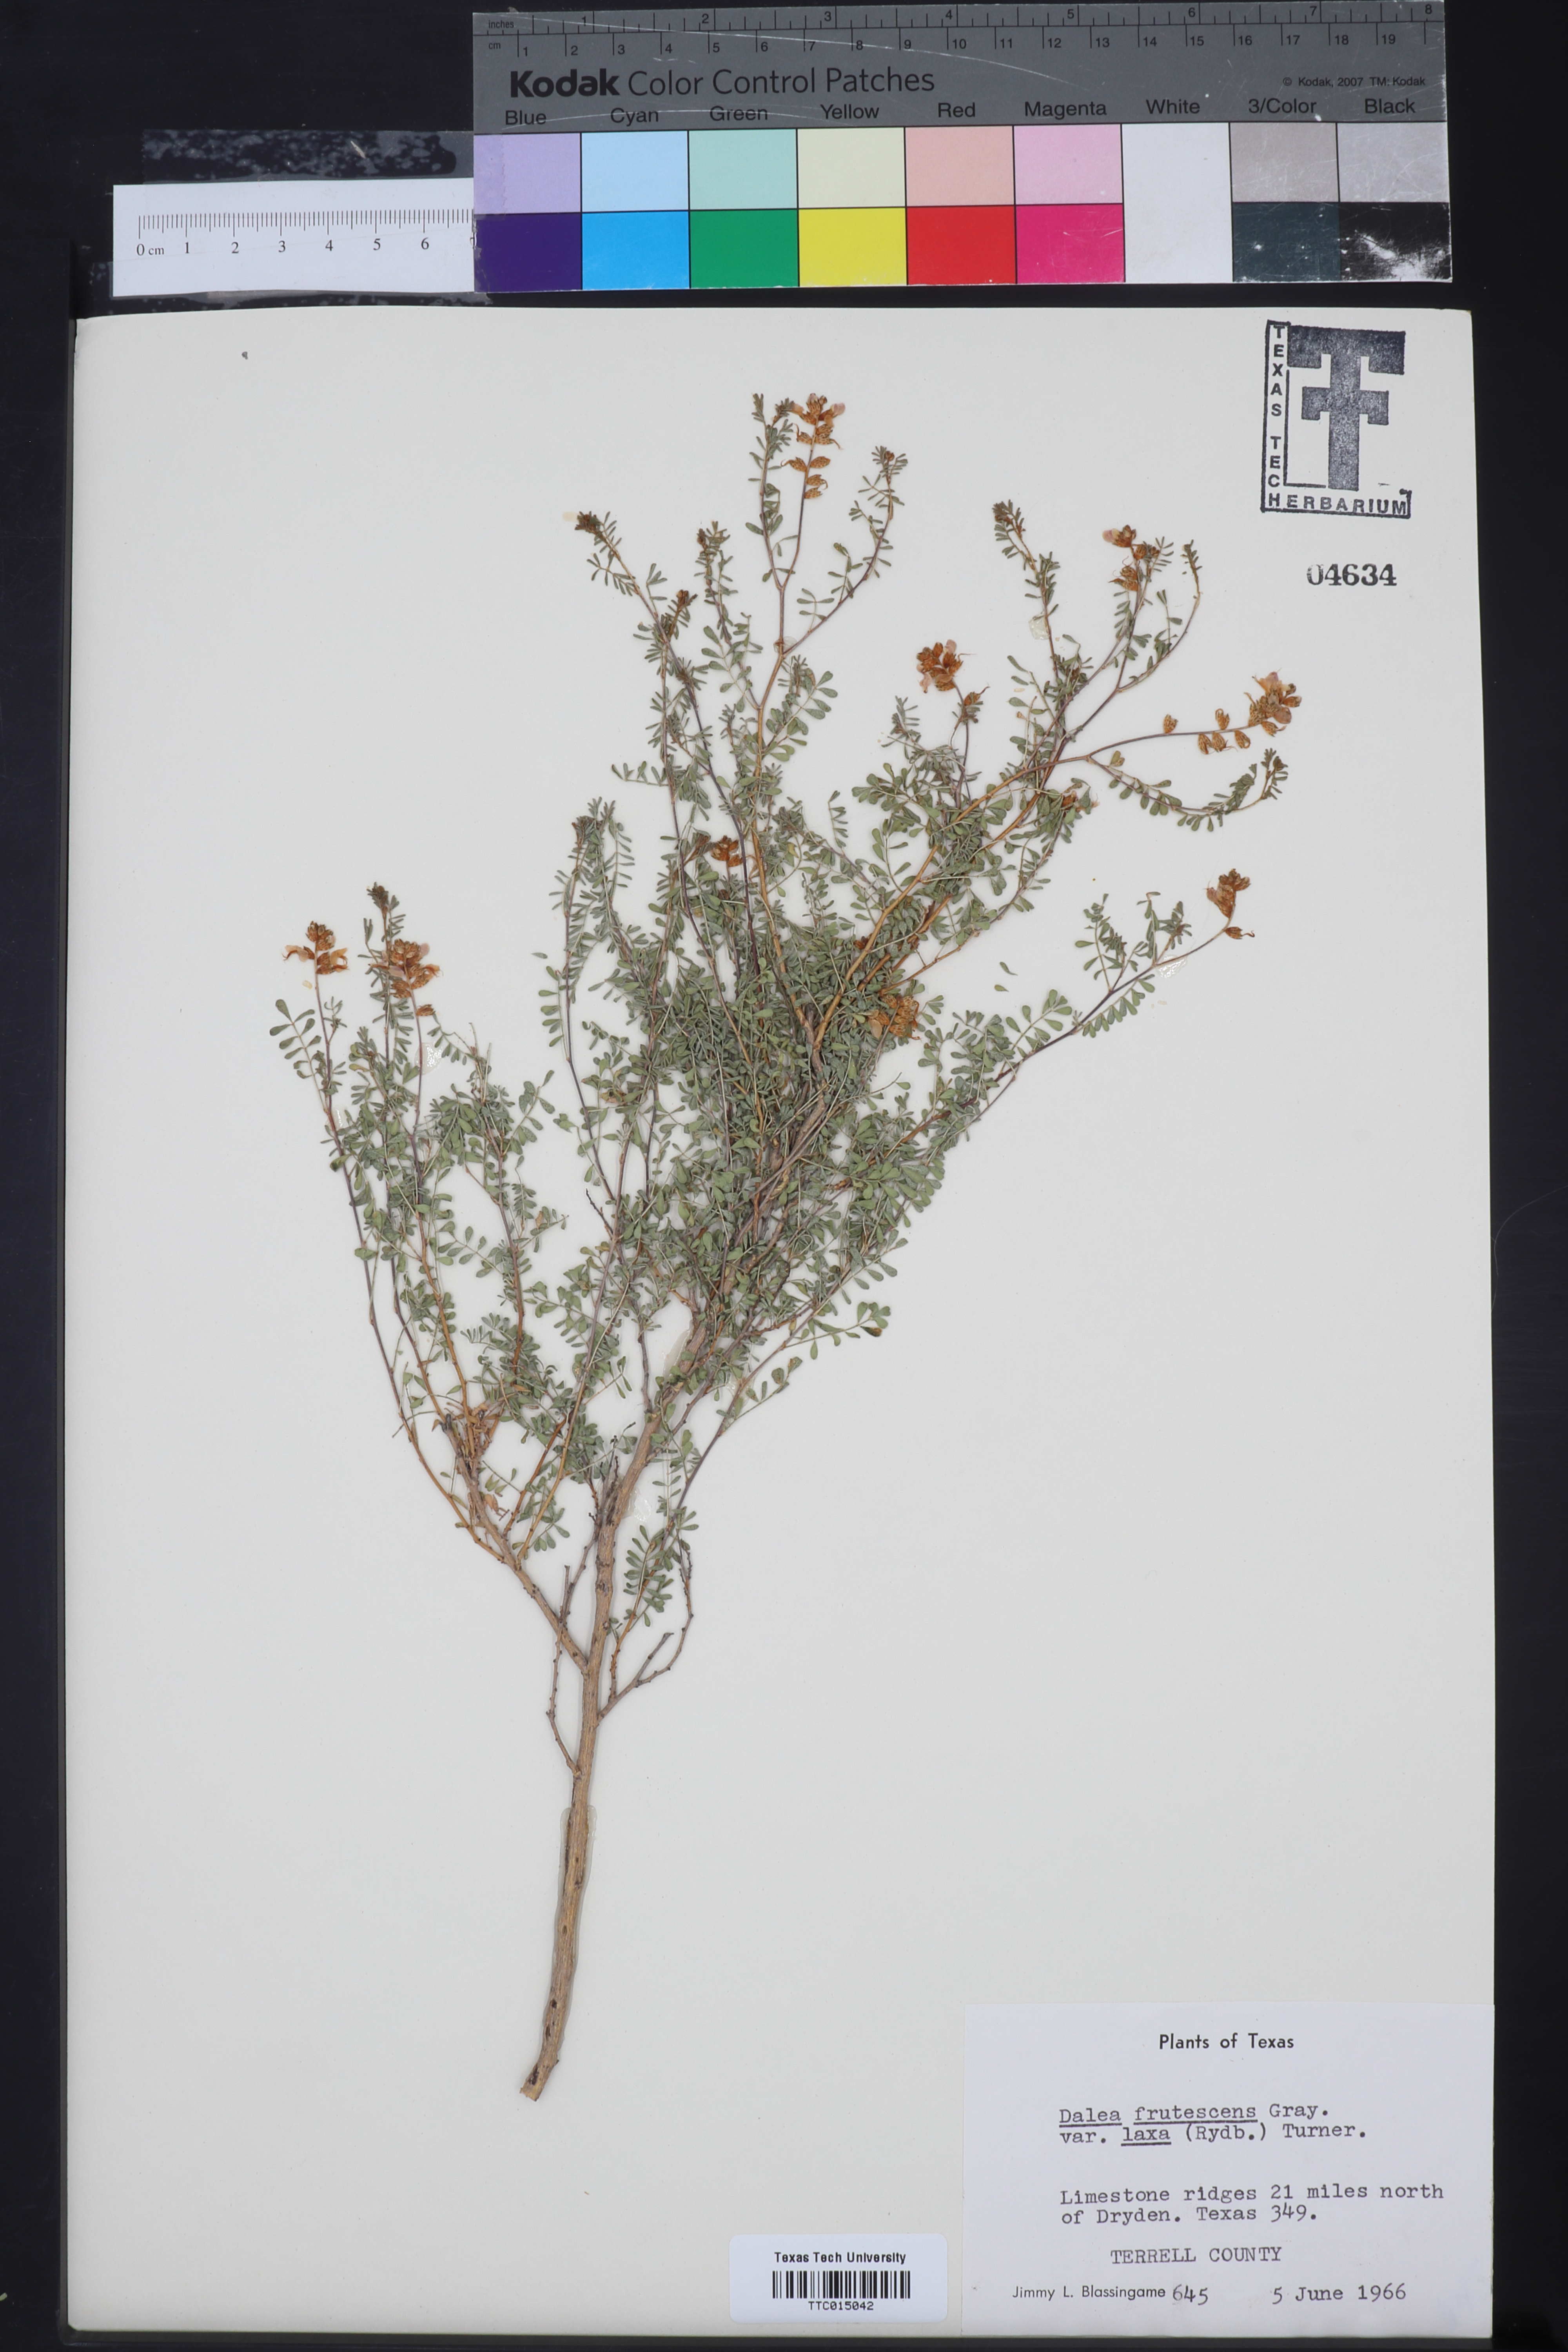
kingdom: Plantae
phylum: Tracheophyta
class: Magnoliopsida
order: Fabales
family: Fabaceae
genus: Dalea
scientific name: Dalea frutescens
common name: Black dalea
